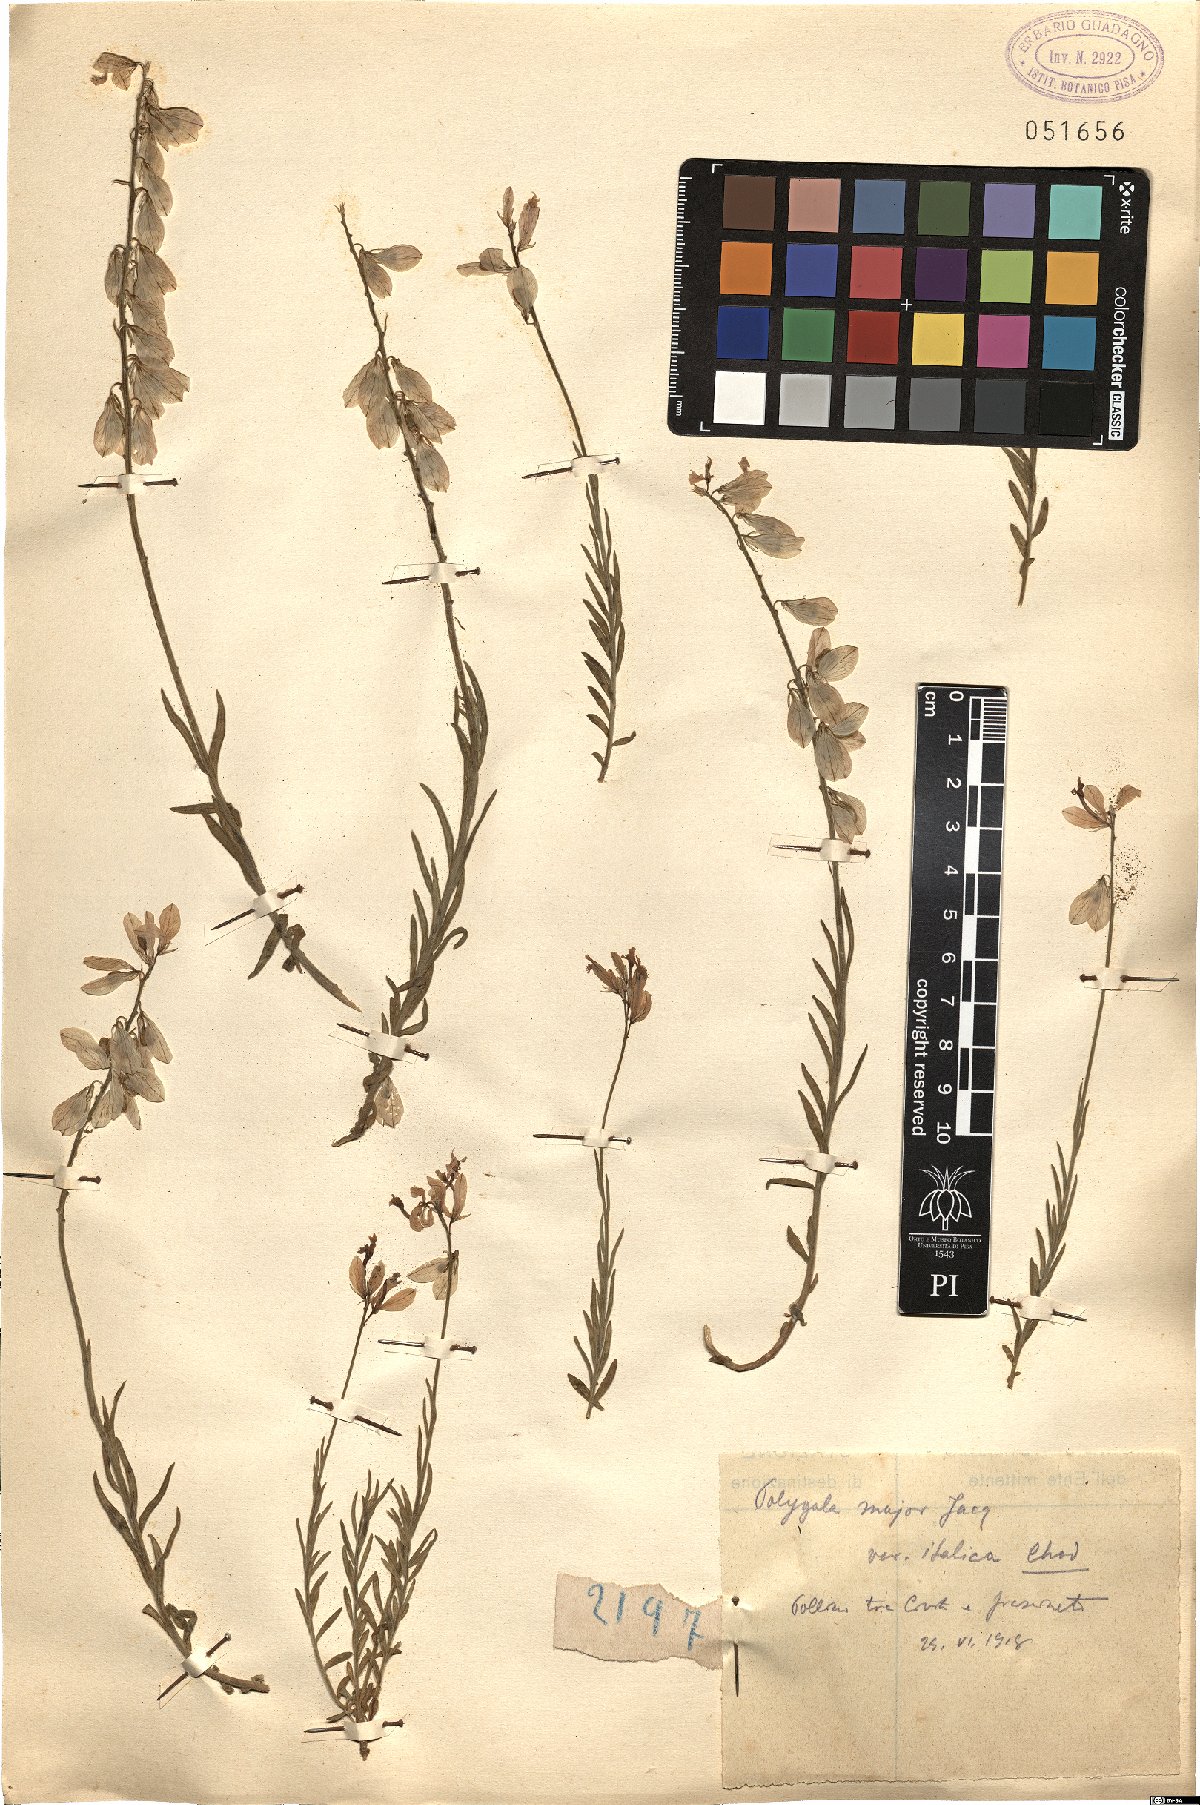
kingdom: Plantae
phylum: Tracheophyta
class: Magnoliopsida
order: Fabales
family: Polygalaceae
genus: Polygala
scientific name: Polygala major
